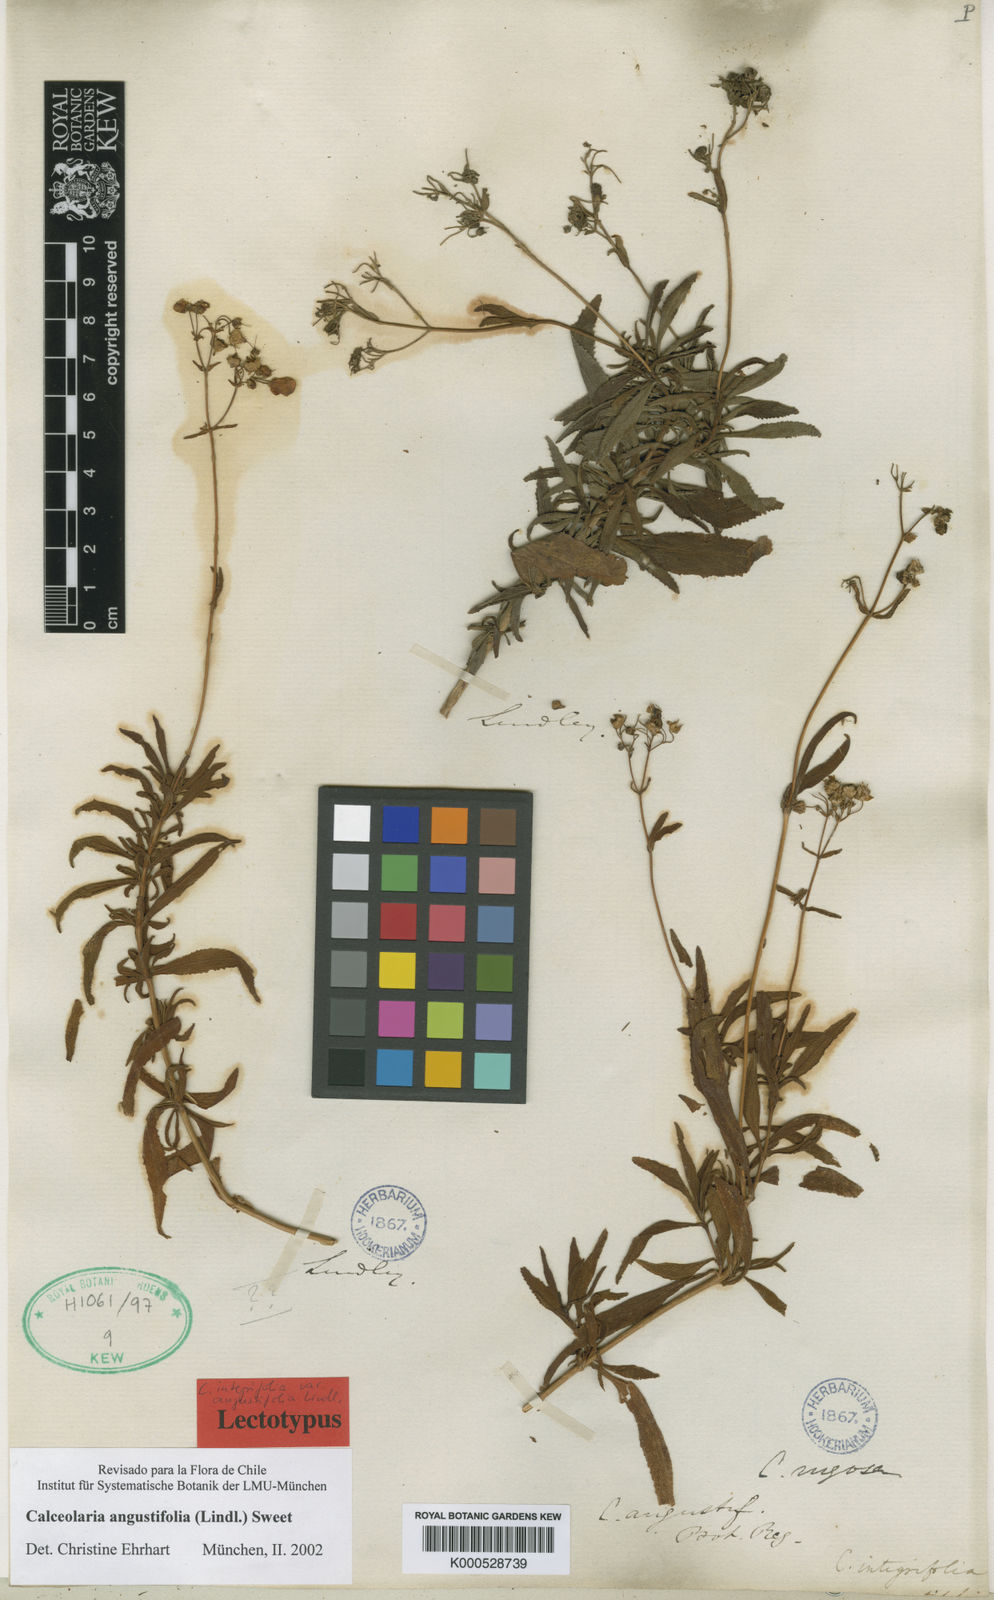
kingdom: Plantae
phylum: Tracheophyta
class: Magnoliopsida
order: Lamiales
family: Calceolariaceae
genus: Calceolaria
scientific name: Calceolaria angustifolia
